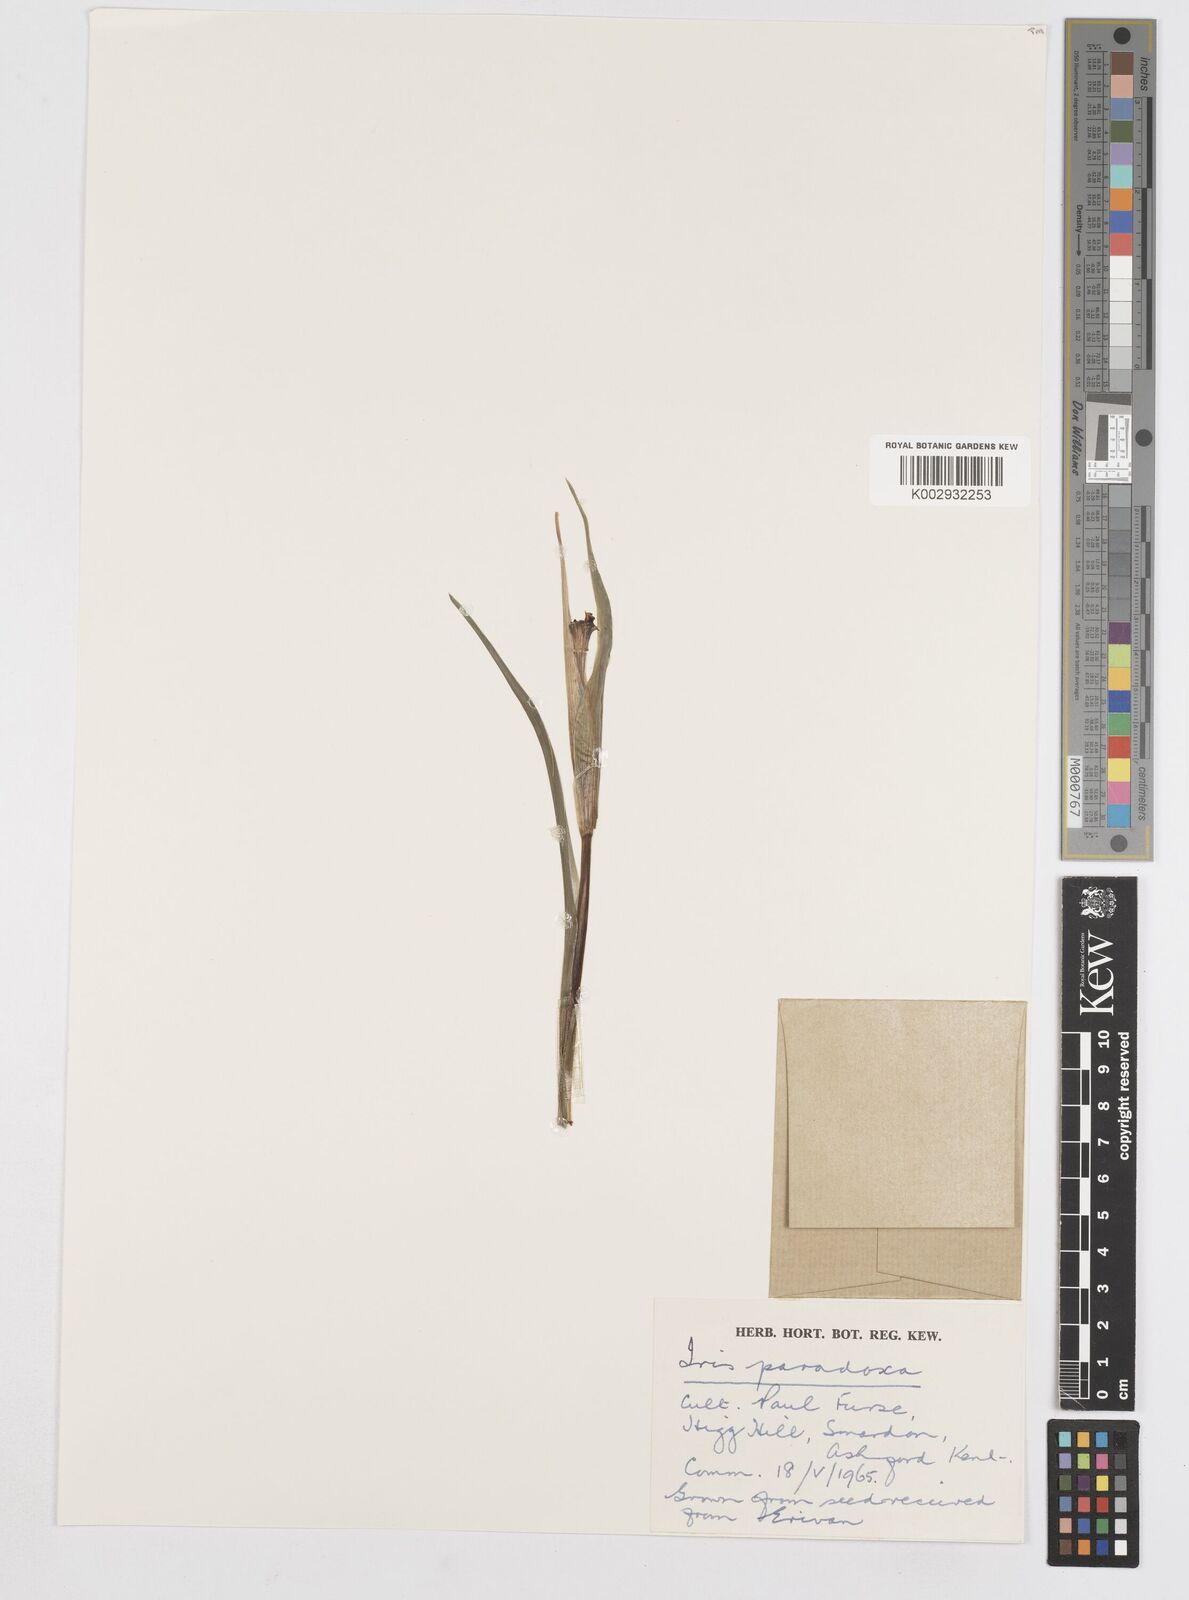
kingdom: Plantae
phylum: Tracheophyta
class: Liliopsida
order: Asparagales
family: Iridaceae
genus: Iris
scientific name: Iris paradoxa
